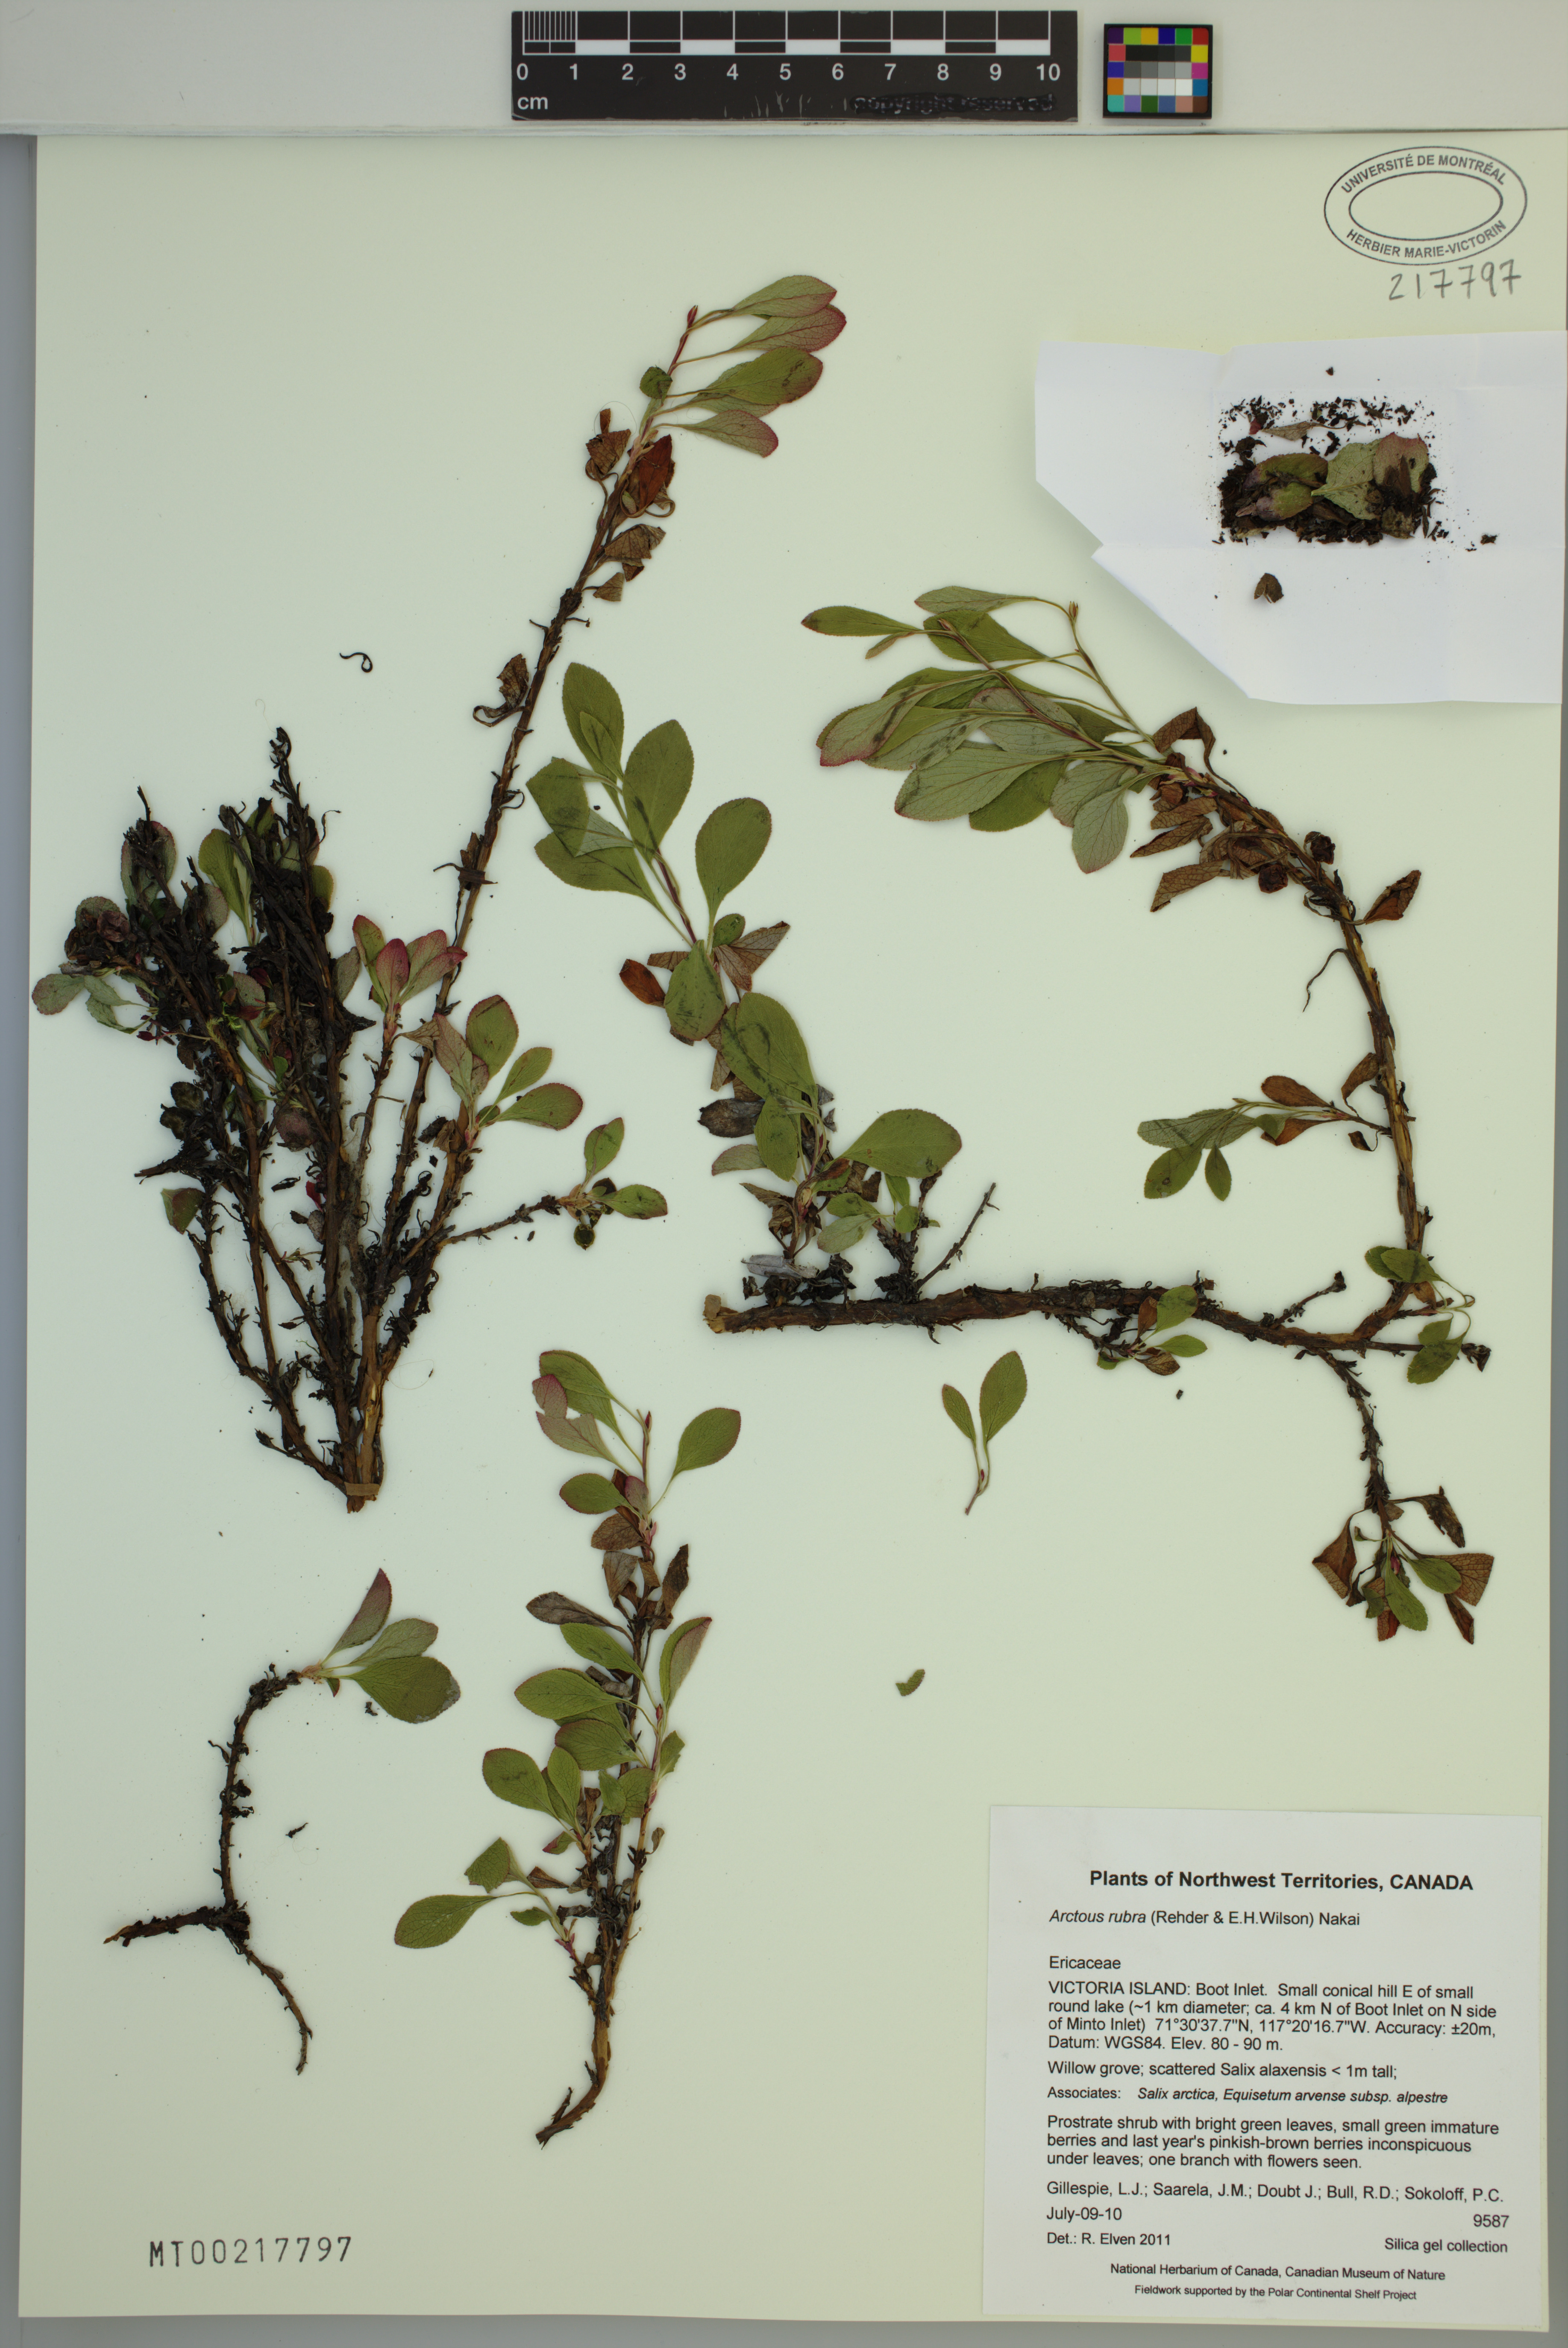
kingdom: Plantae
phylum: Tracheophyta
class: Magnoliopsida
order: Ericales
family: Ericaceae
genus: Arctostaphylos
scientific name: Arctostaphylos rubra
